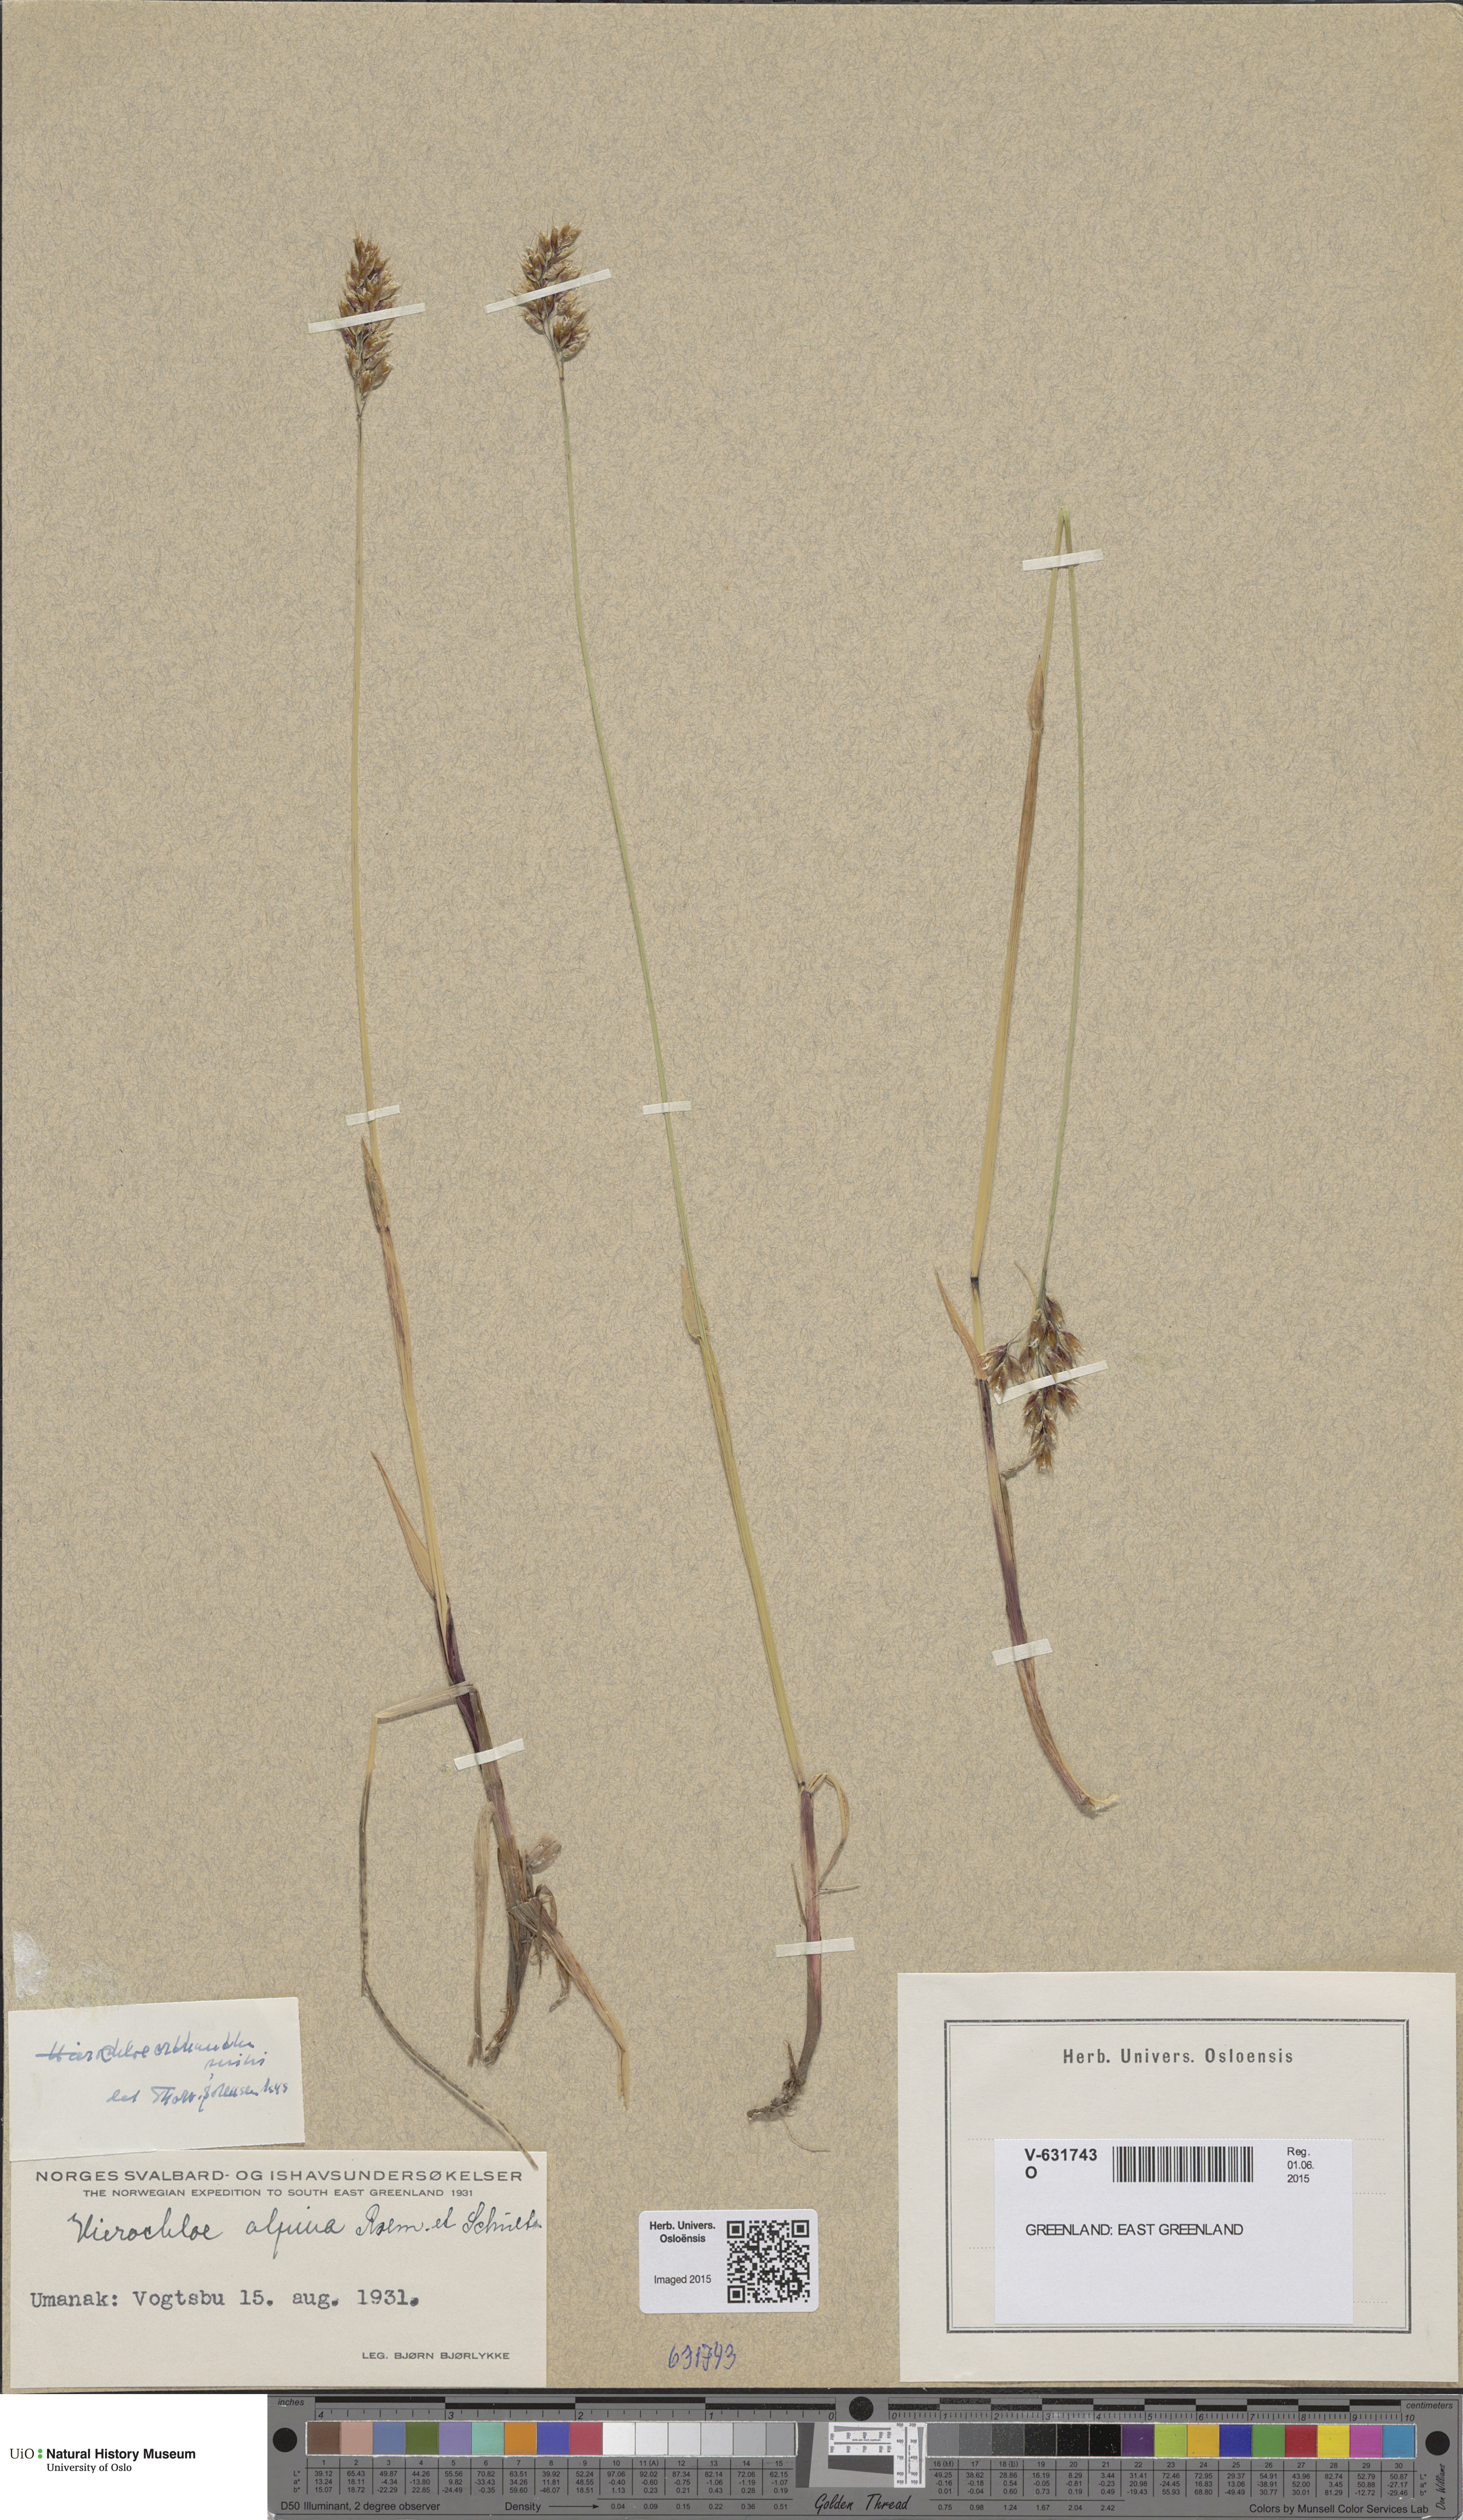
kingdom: Plantae
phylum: Tracheophyta
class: Liliopsida
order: Poales
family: Poaceae
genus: Anthoxanthum
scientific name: Anthoxanthum monticola
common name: Alpine sweetgrass
